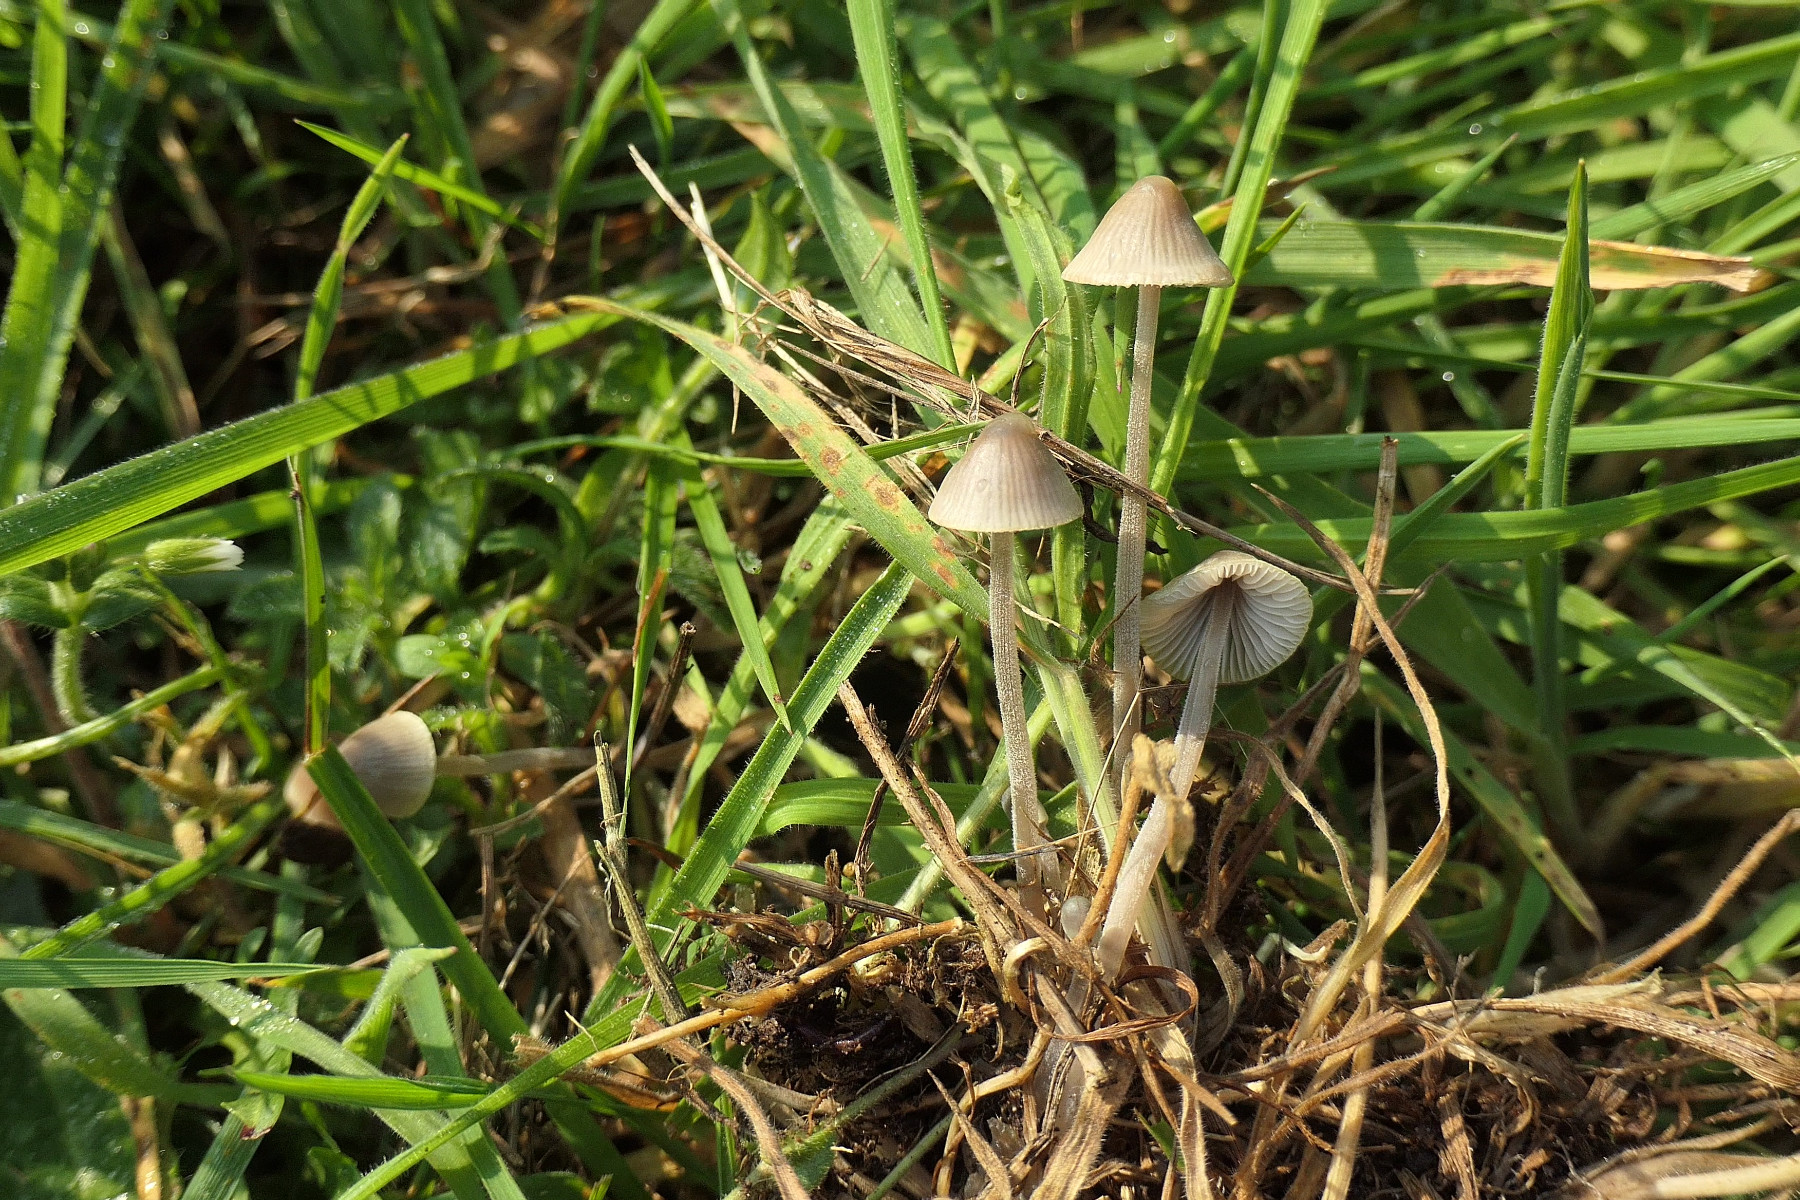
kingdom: Fungi
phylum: Basidiomycota
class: Agaricomycetes
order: Agaricales
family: Mycenaceae
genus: Mycena
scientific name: Mycena amicta
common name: iris-huesvamp
